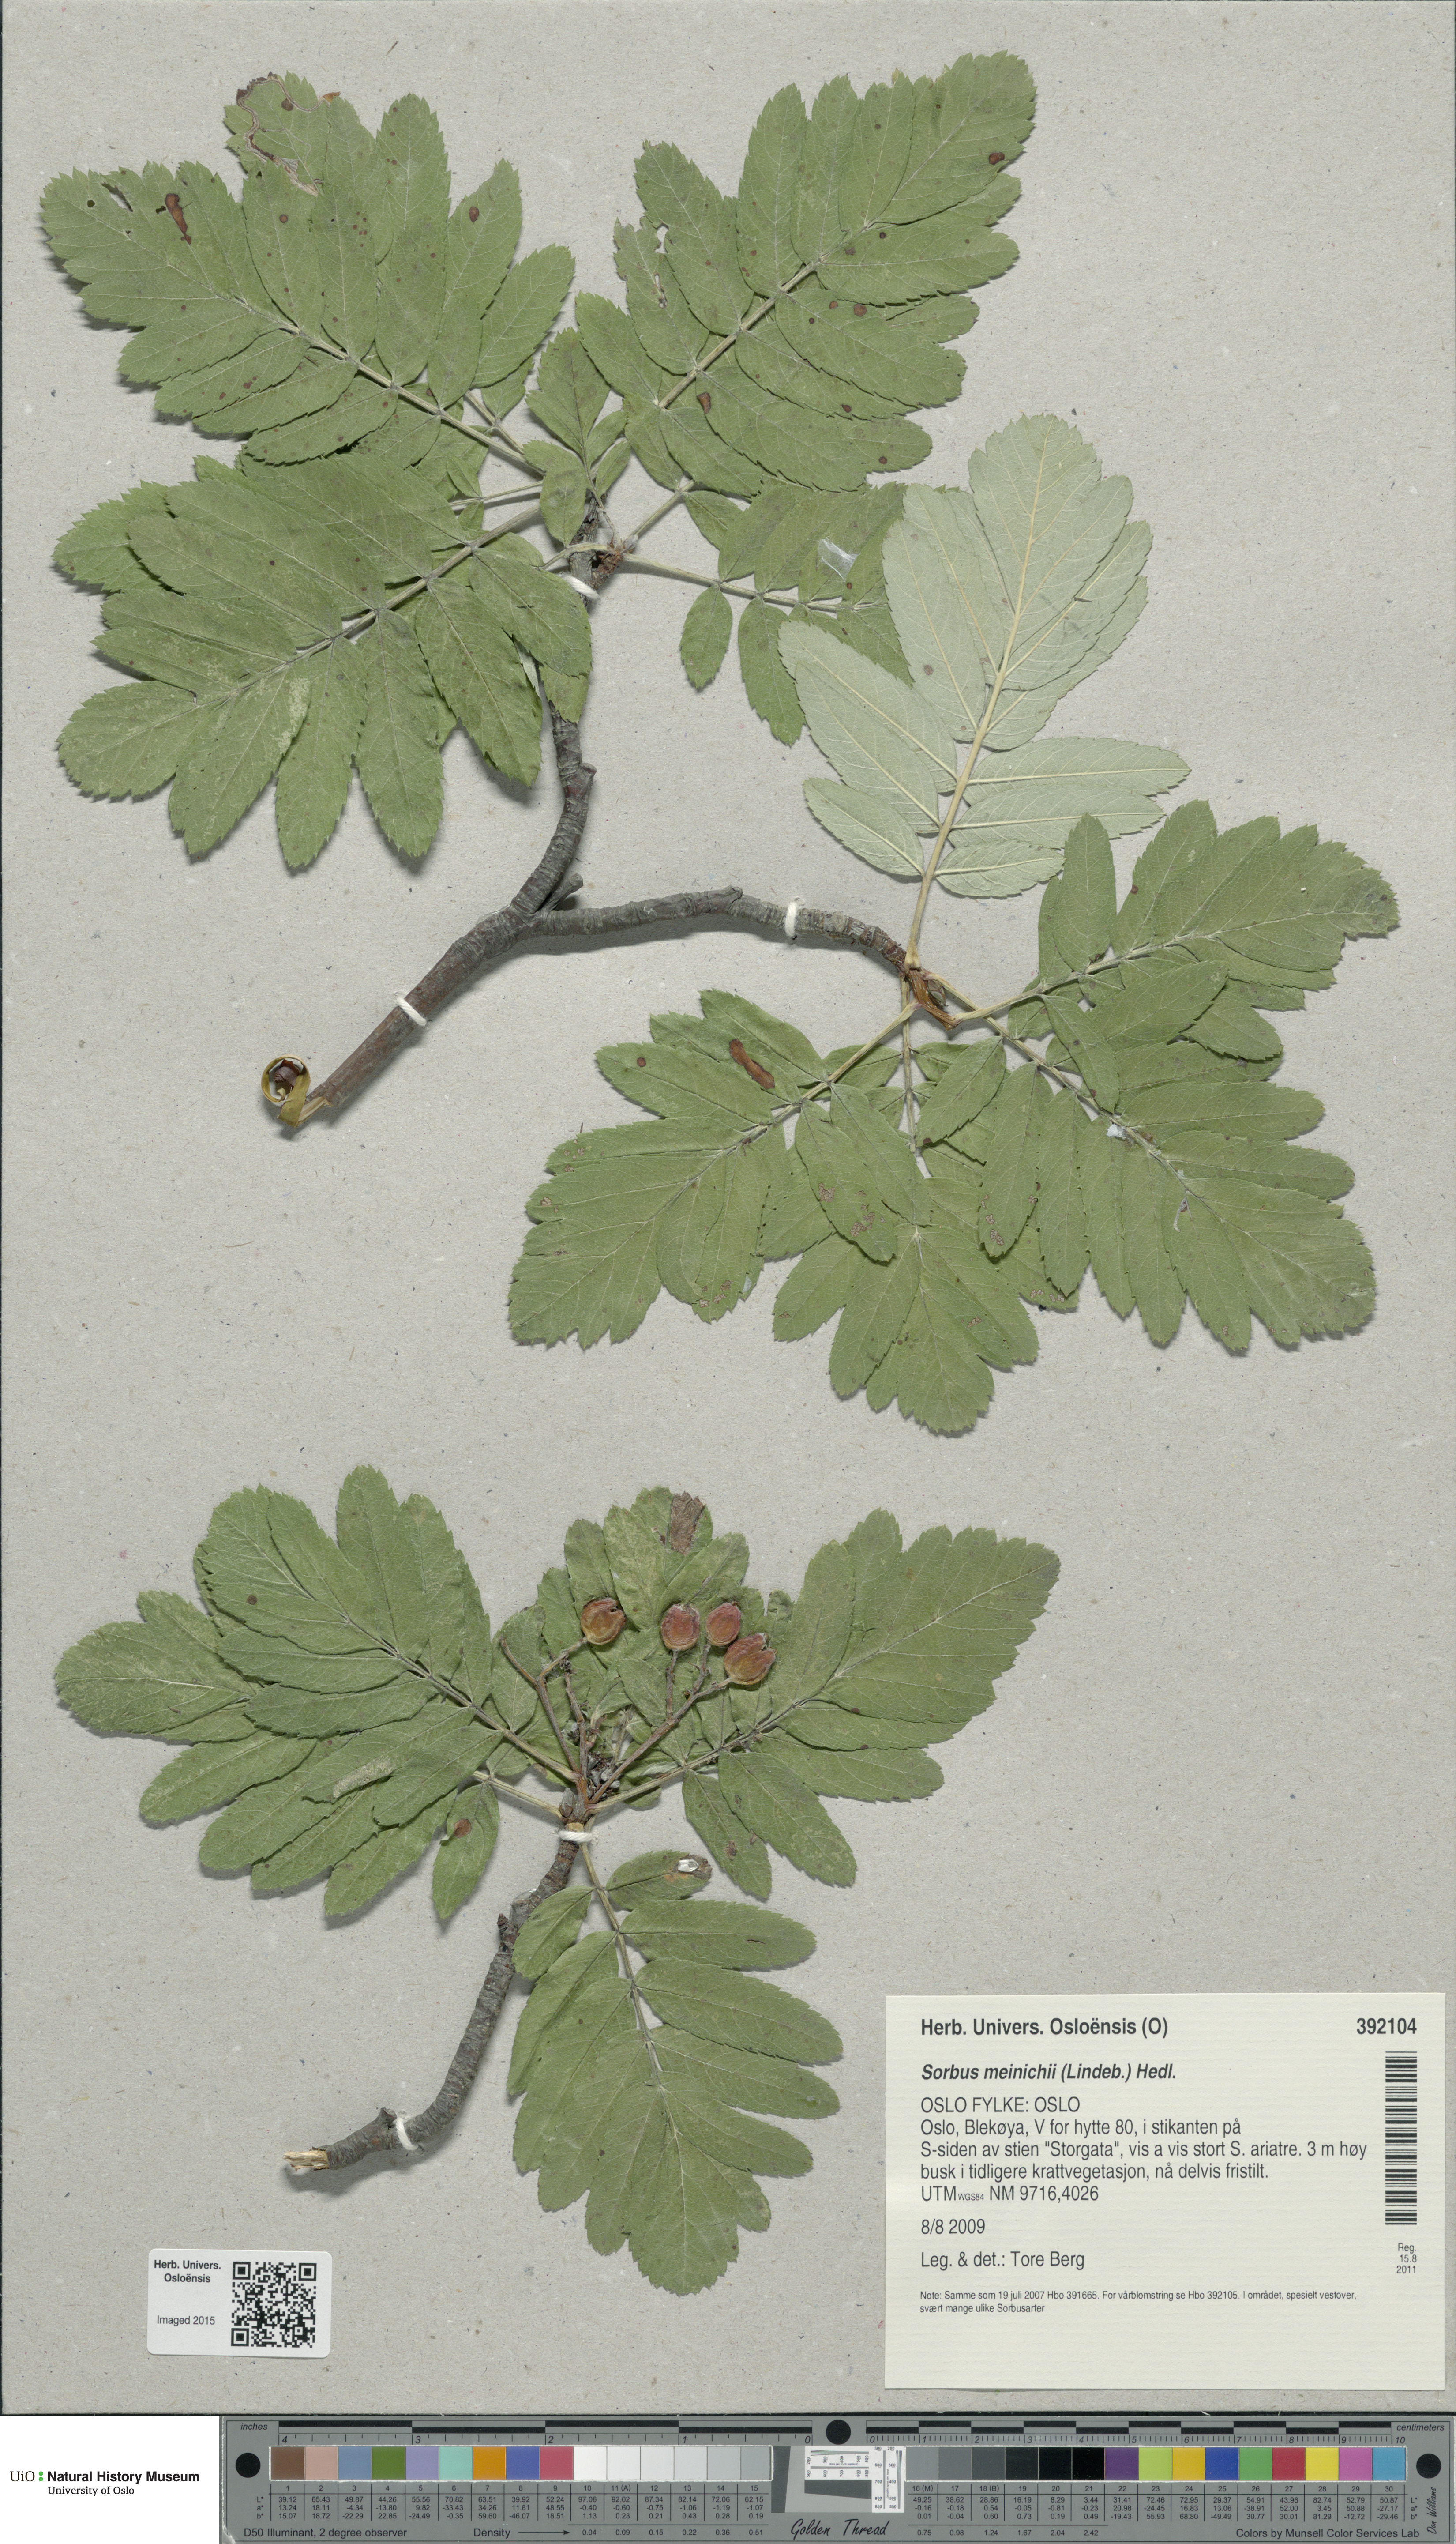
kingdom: Plantae
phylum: Tracheophyta
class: Magnoliopsida
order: Rosales
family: Rosaceae
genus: Hedlundia
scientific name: Hedlundia meinichii
